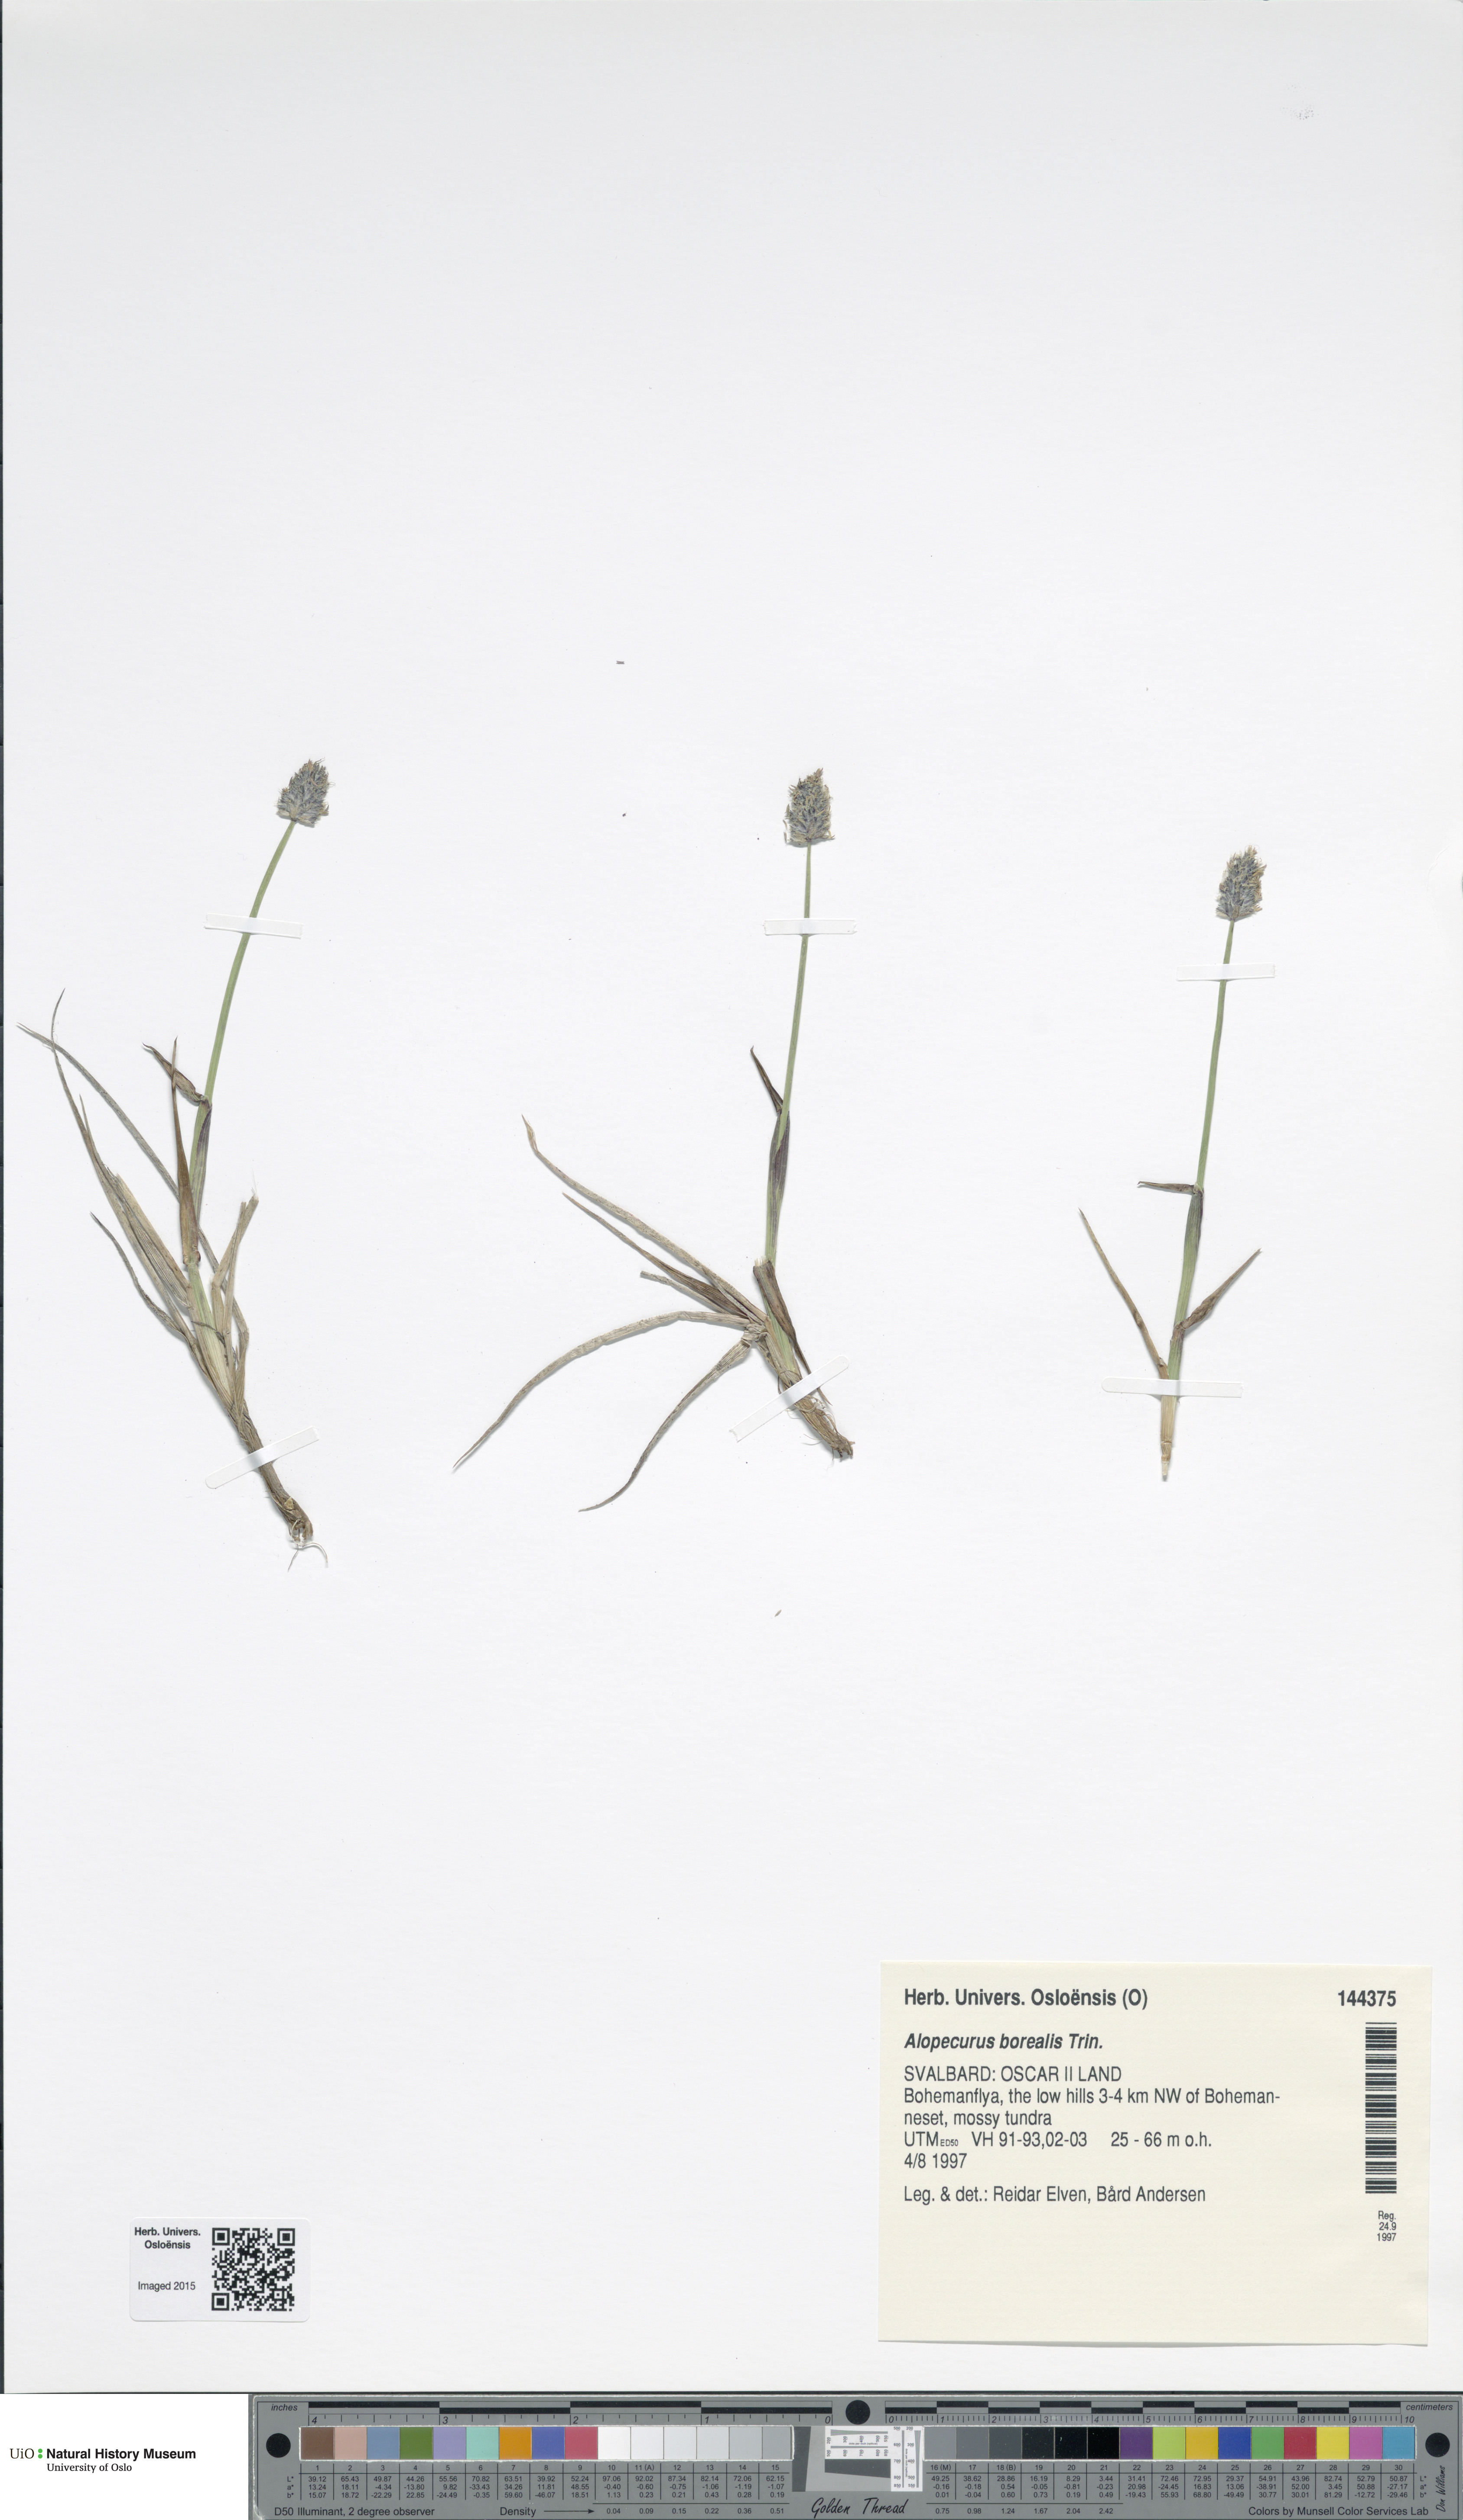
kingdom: Plantae
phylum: Tracheophyta
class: Liliopsida
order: Poales
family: Poaceae
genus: Alopecurus
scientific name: Alopecurus magellanicus
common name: Alpine foxtail
